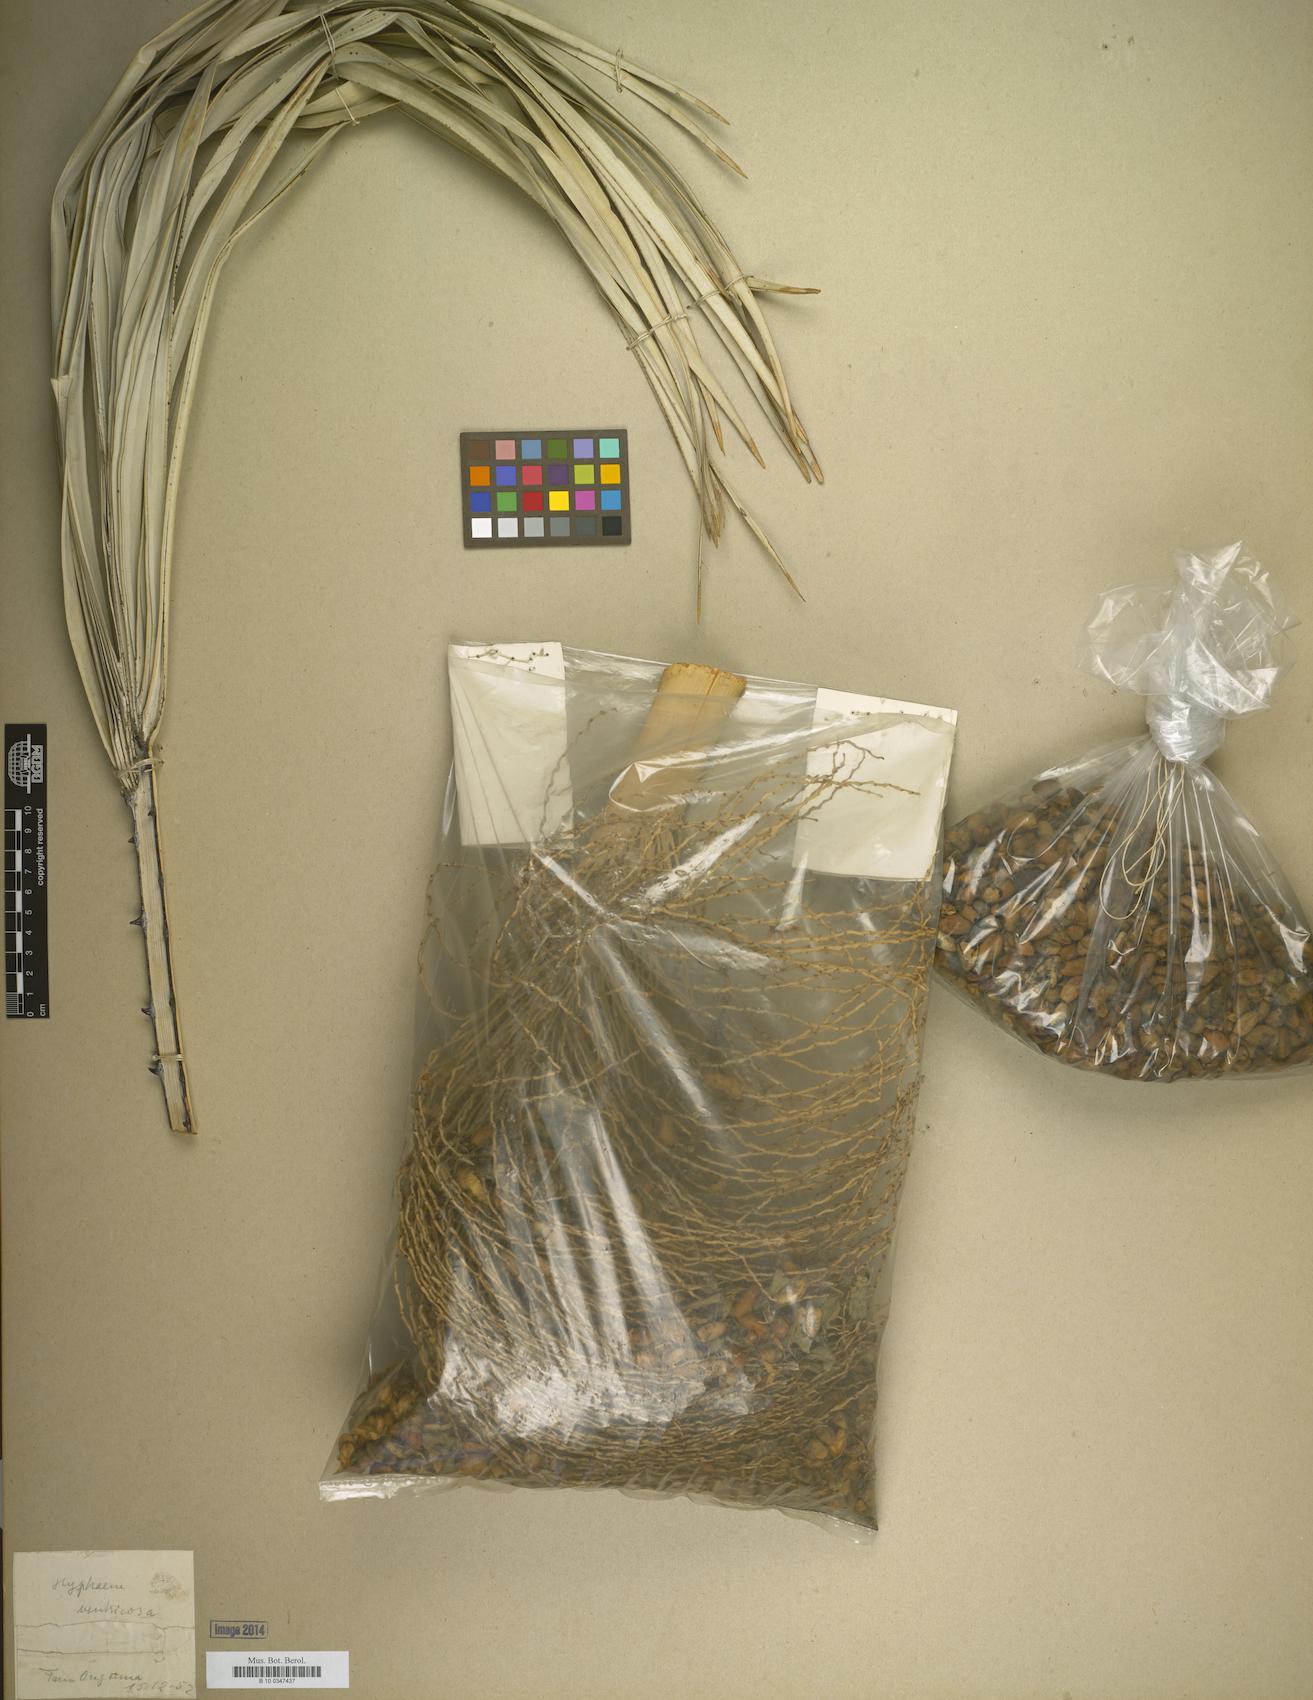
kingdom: Plantae
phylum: Tracheophyta
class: Liliopsida
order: Arecales
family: Arecaceae
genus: Hyphaene
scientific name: Hyphaene petersiana
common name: African ivory nut palm
